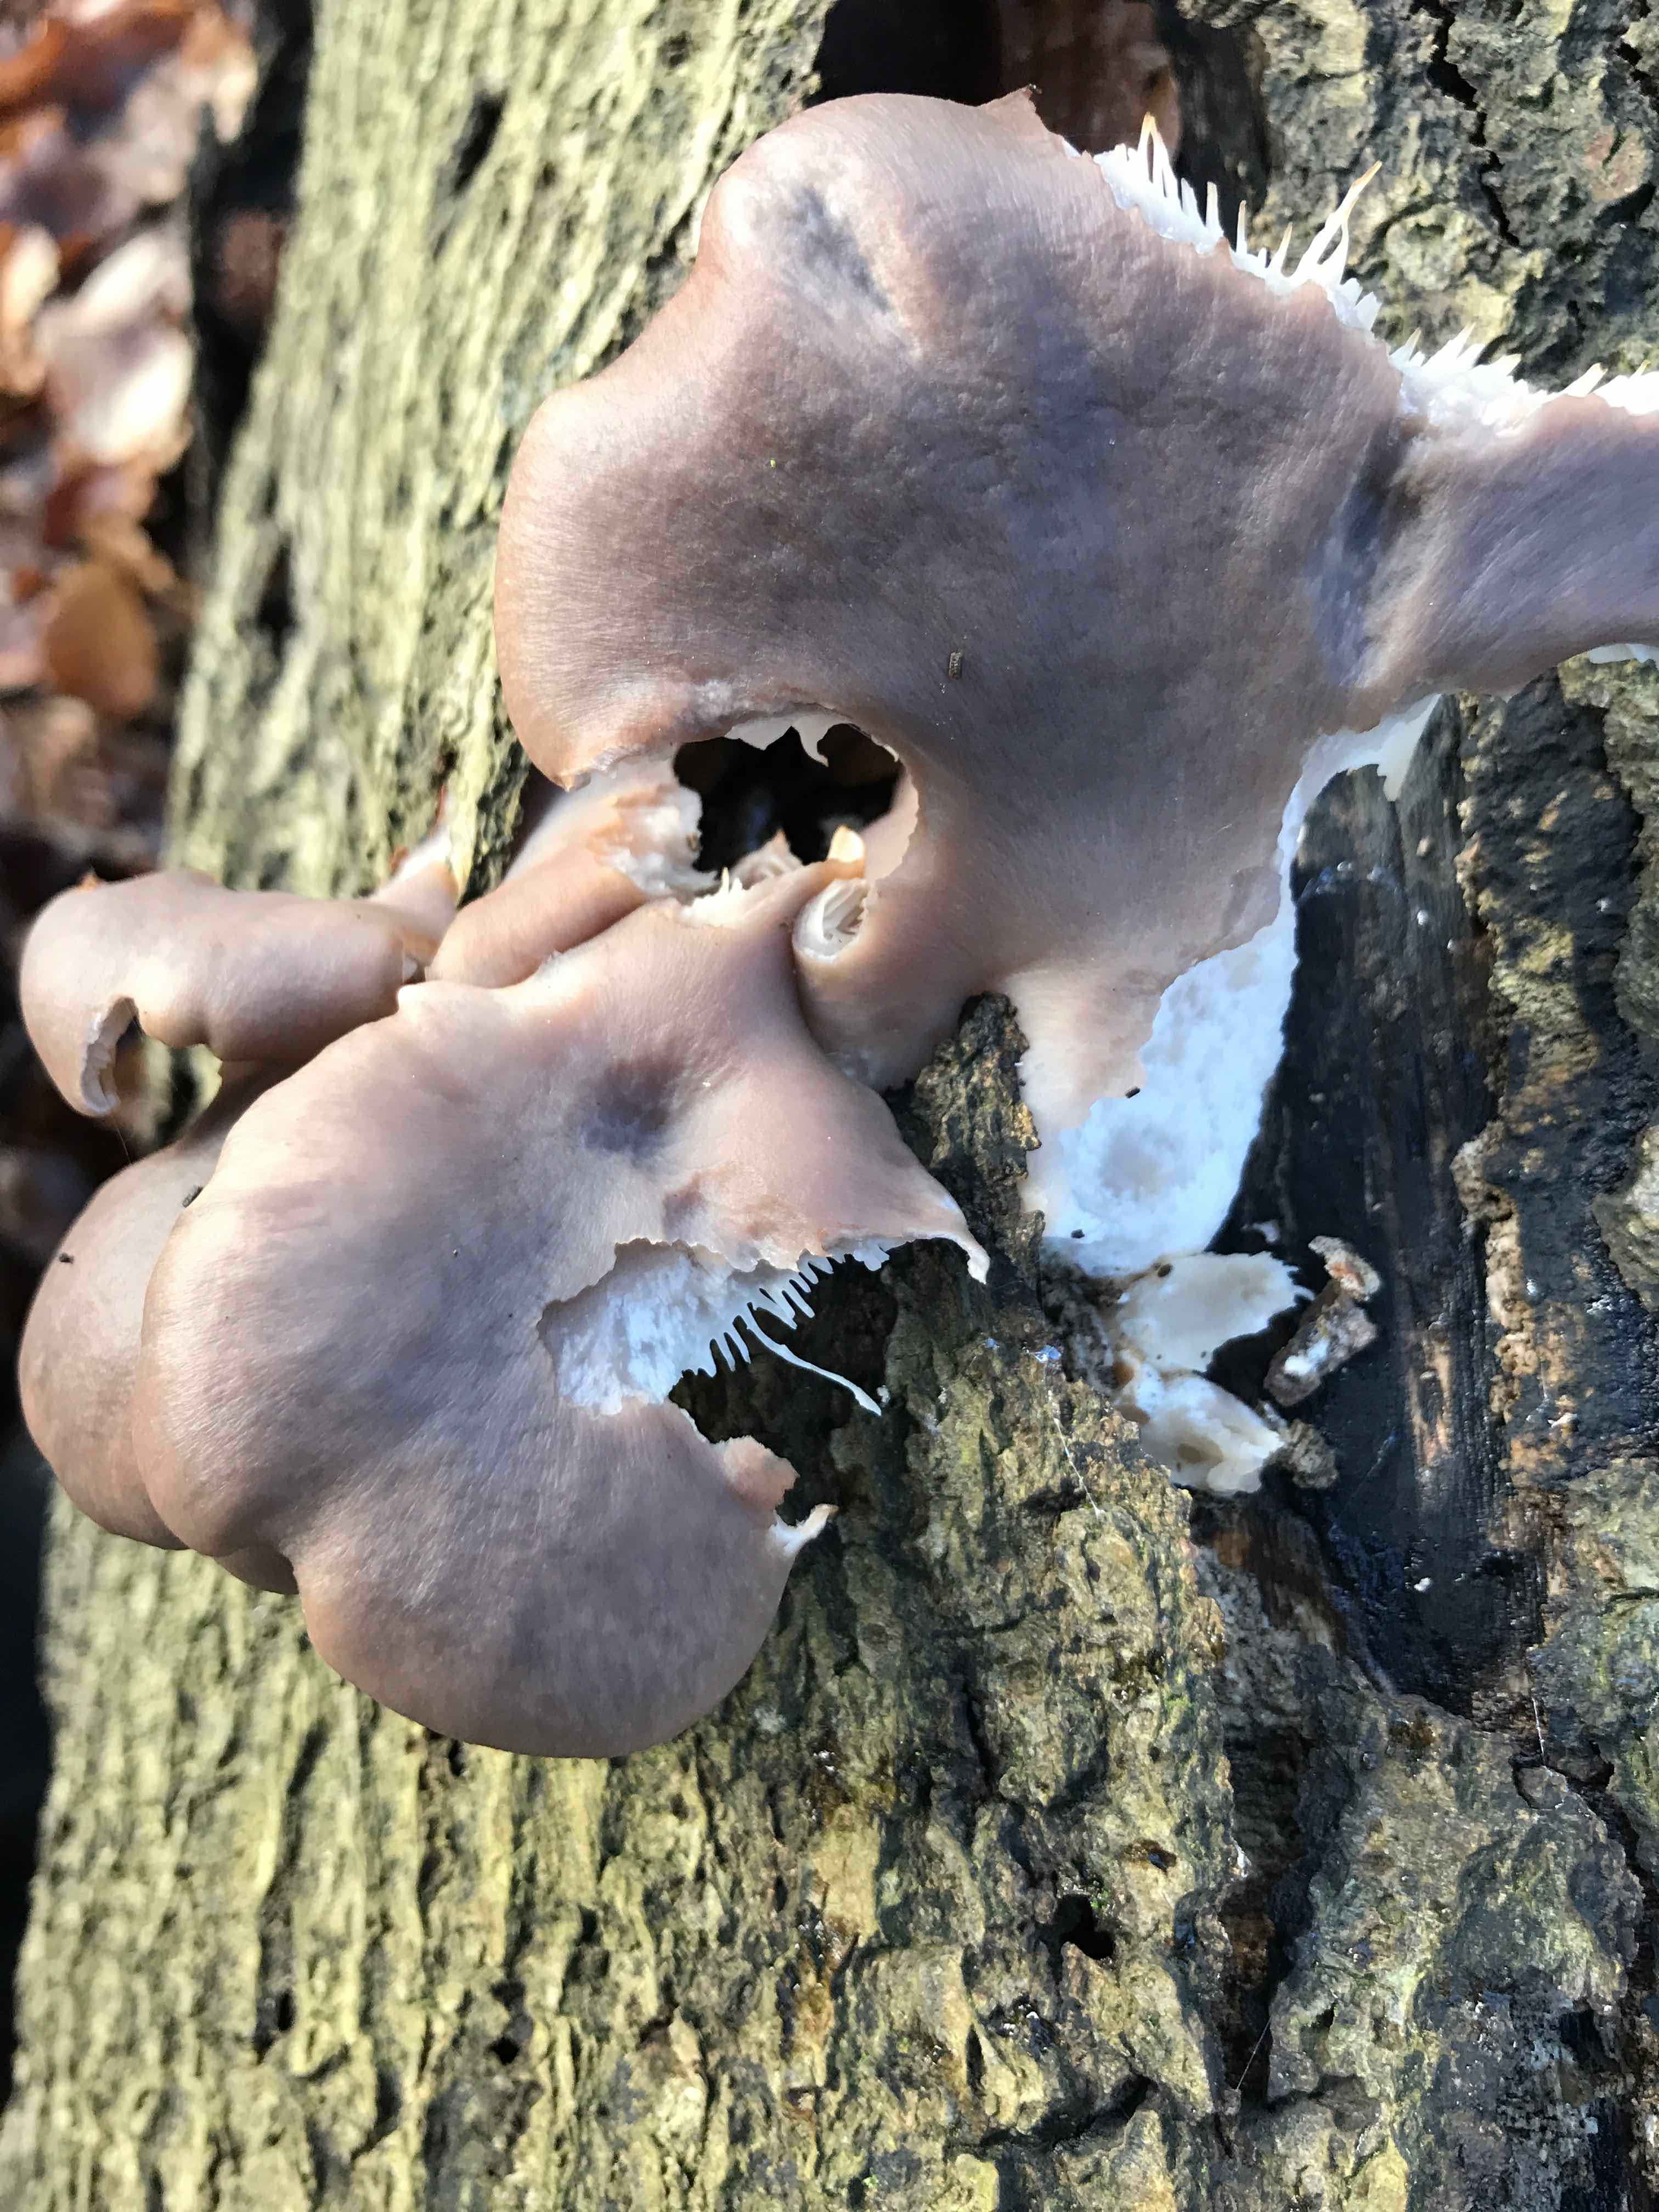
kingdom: Fungi
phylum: Basidiomycota
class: Agaricomycetes
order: Agaricales
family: Pleurotaceae
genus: Pleurotus
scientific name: Pleurotus ostreatus
